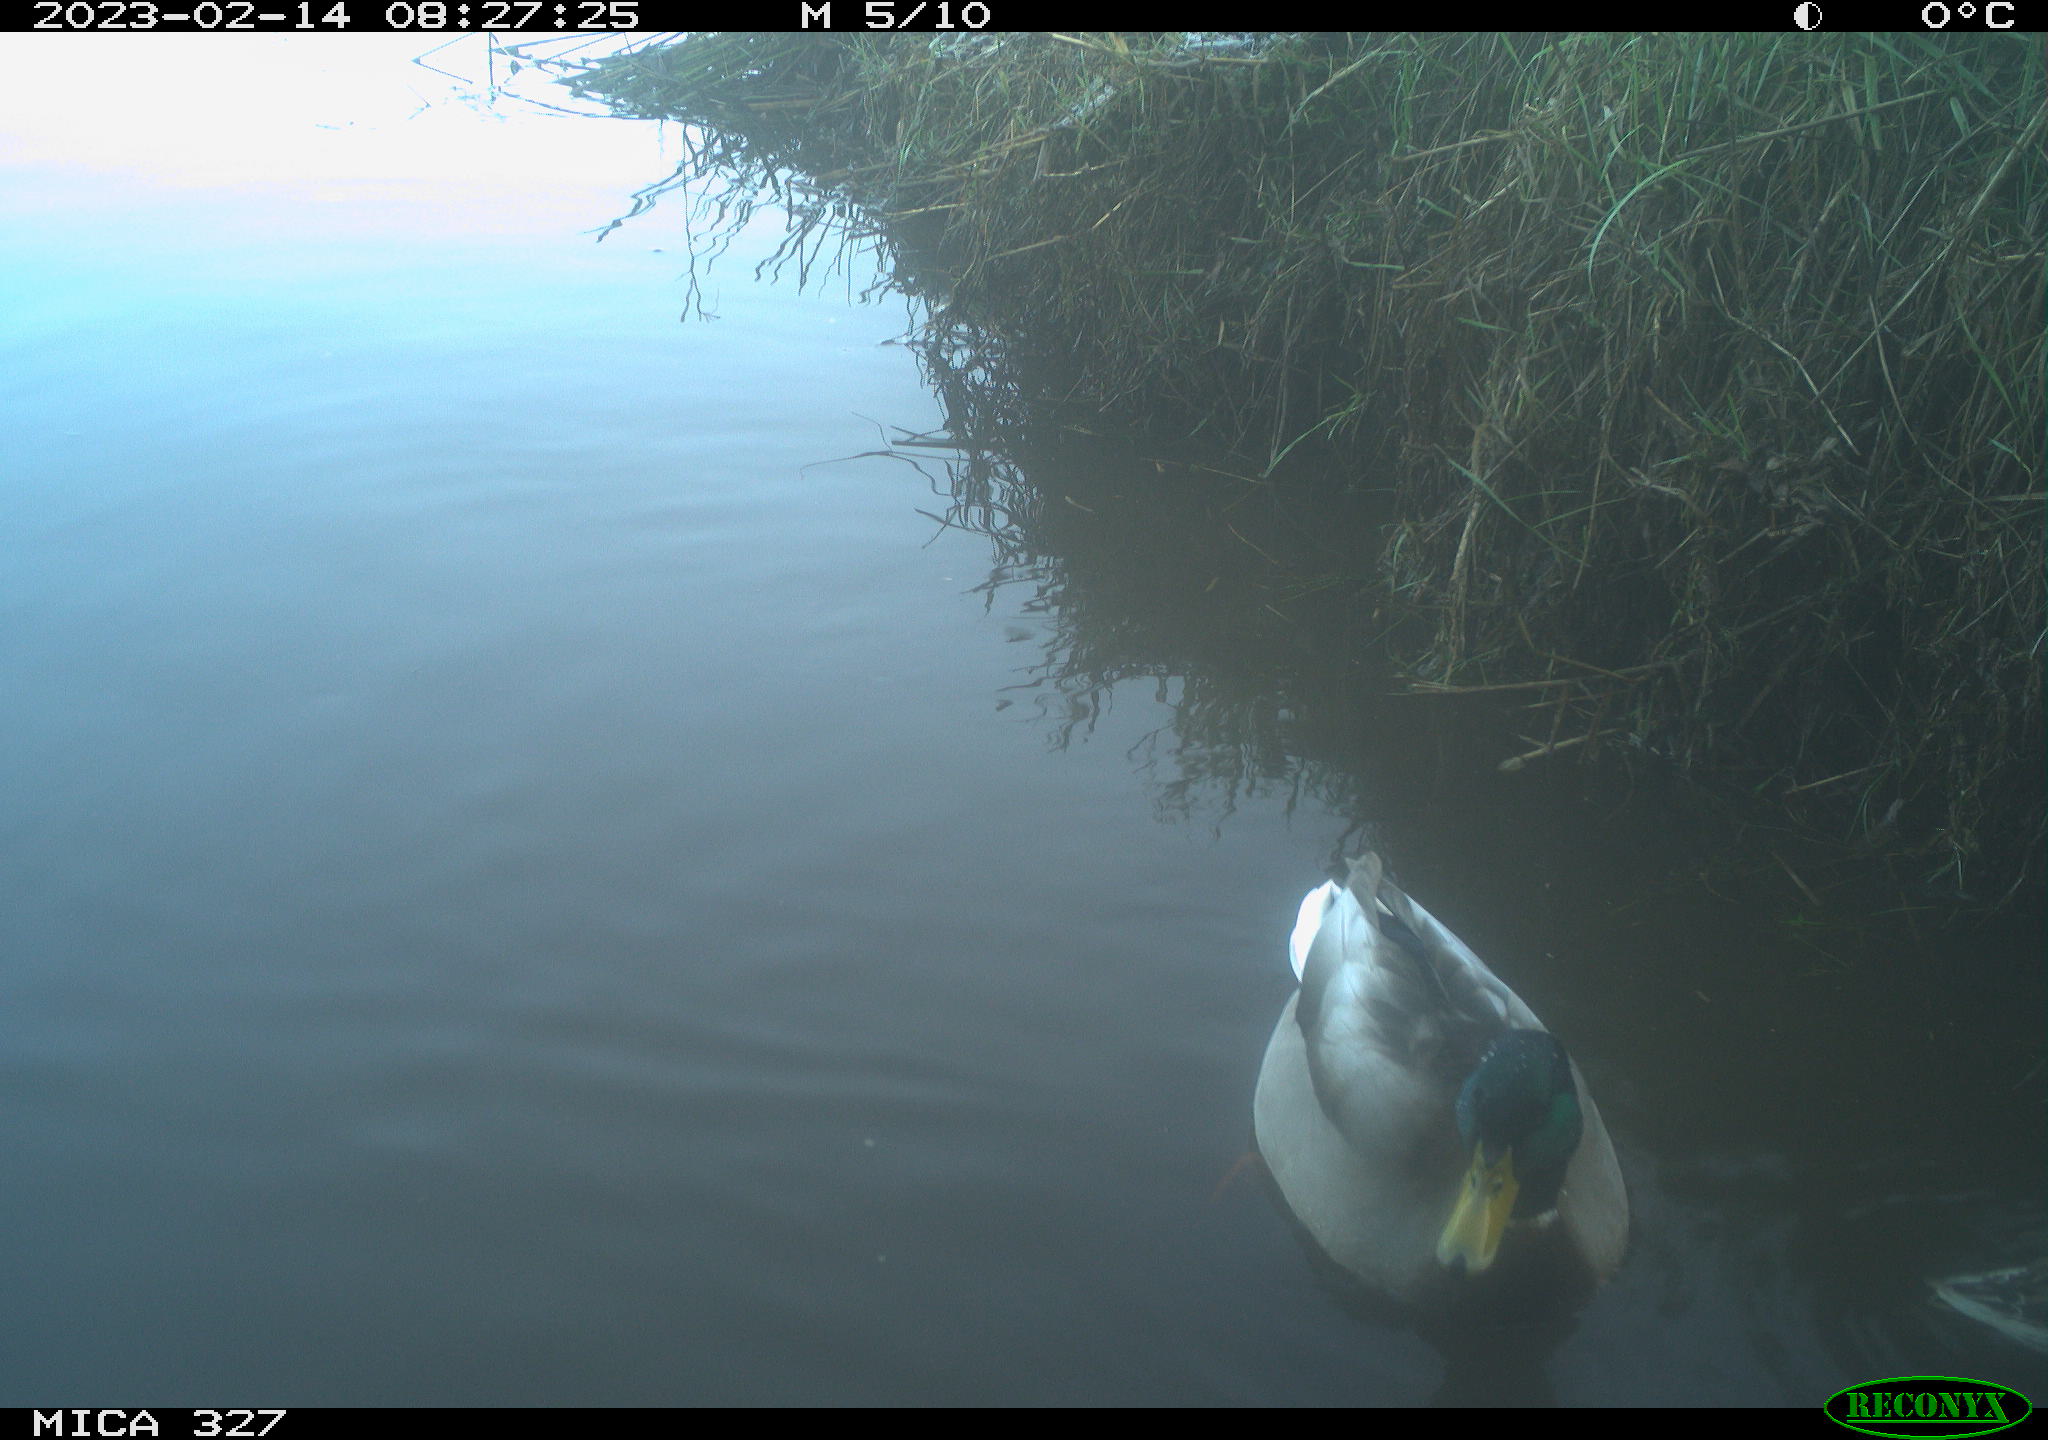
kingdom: Animalia
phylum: Chordata
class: Aves
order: Anseriformes
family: Anatidae
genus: Anas
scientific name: Anas
